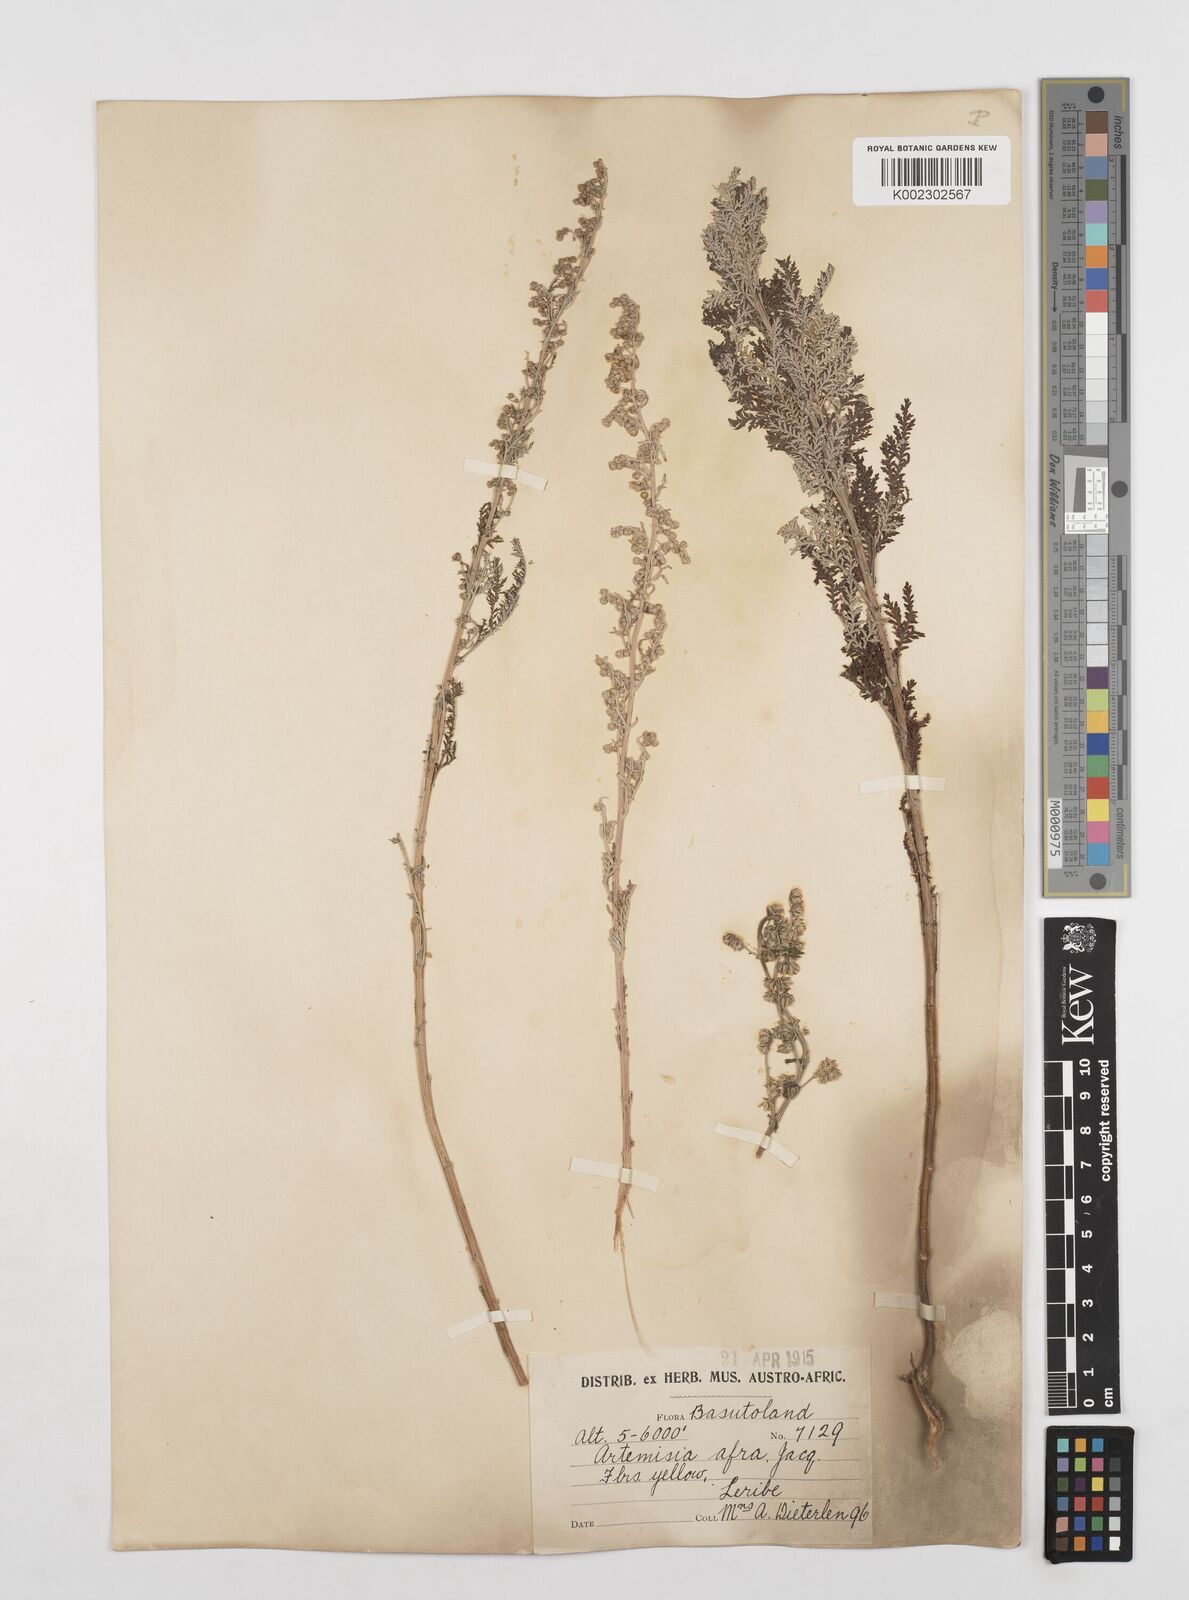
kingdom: Plantae
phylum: Tracheophyta
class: Magnoliopsida
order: Asterales
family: Asteraceae
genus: Artemisia
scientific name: Artemisia afra
